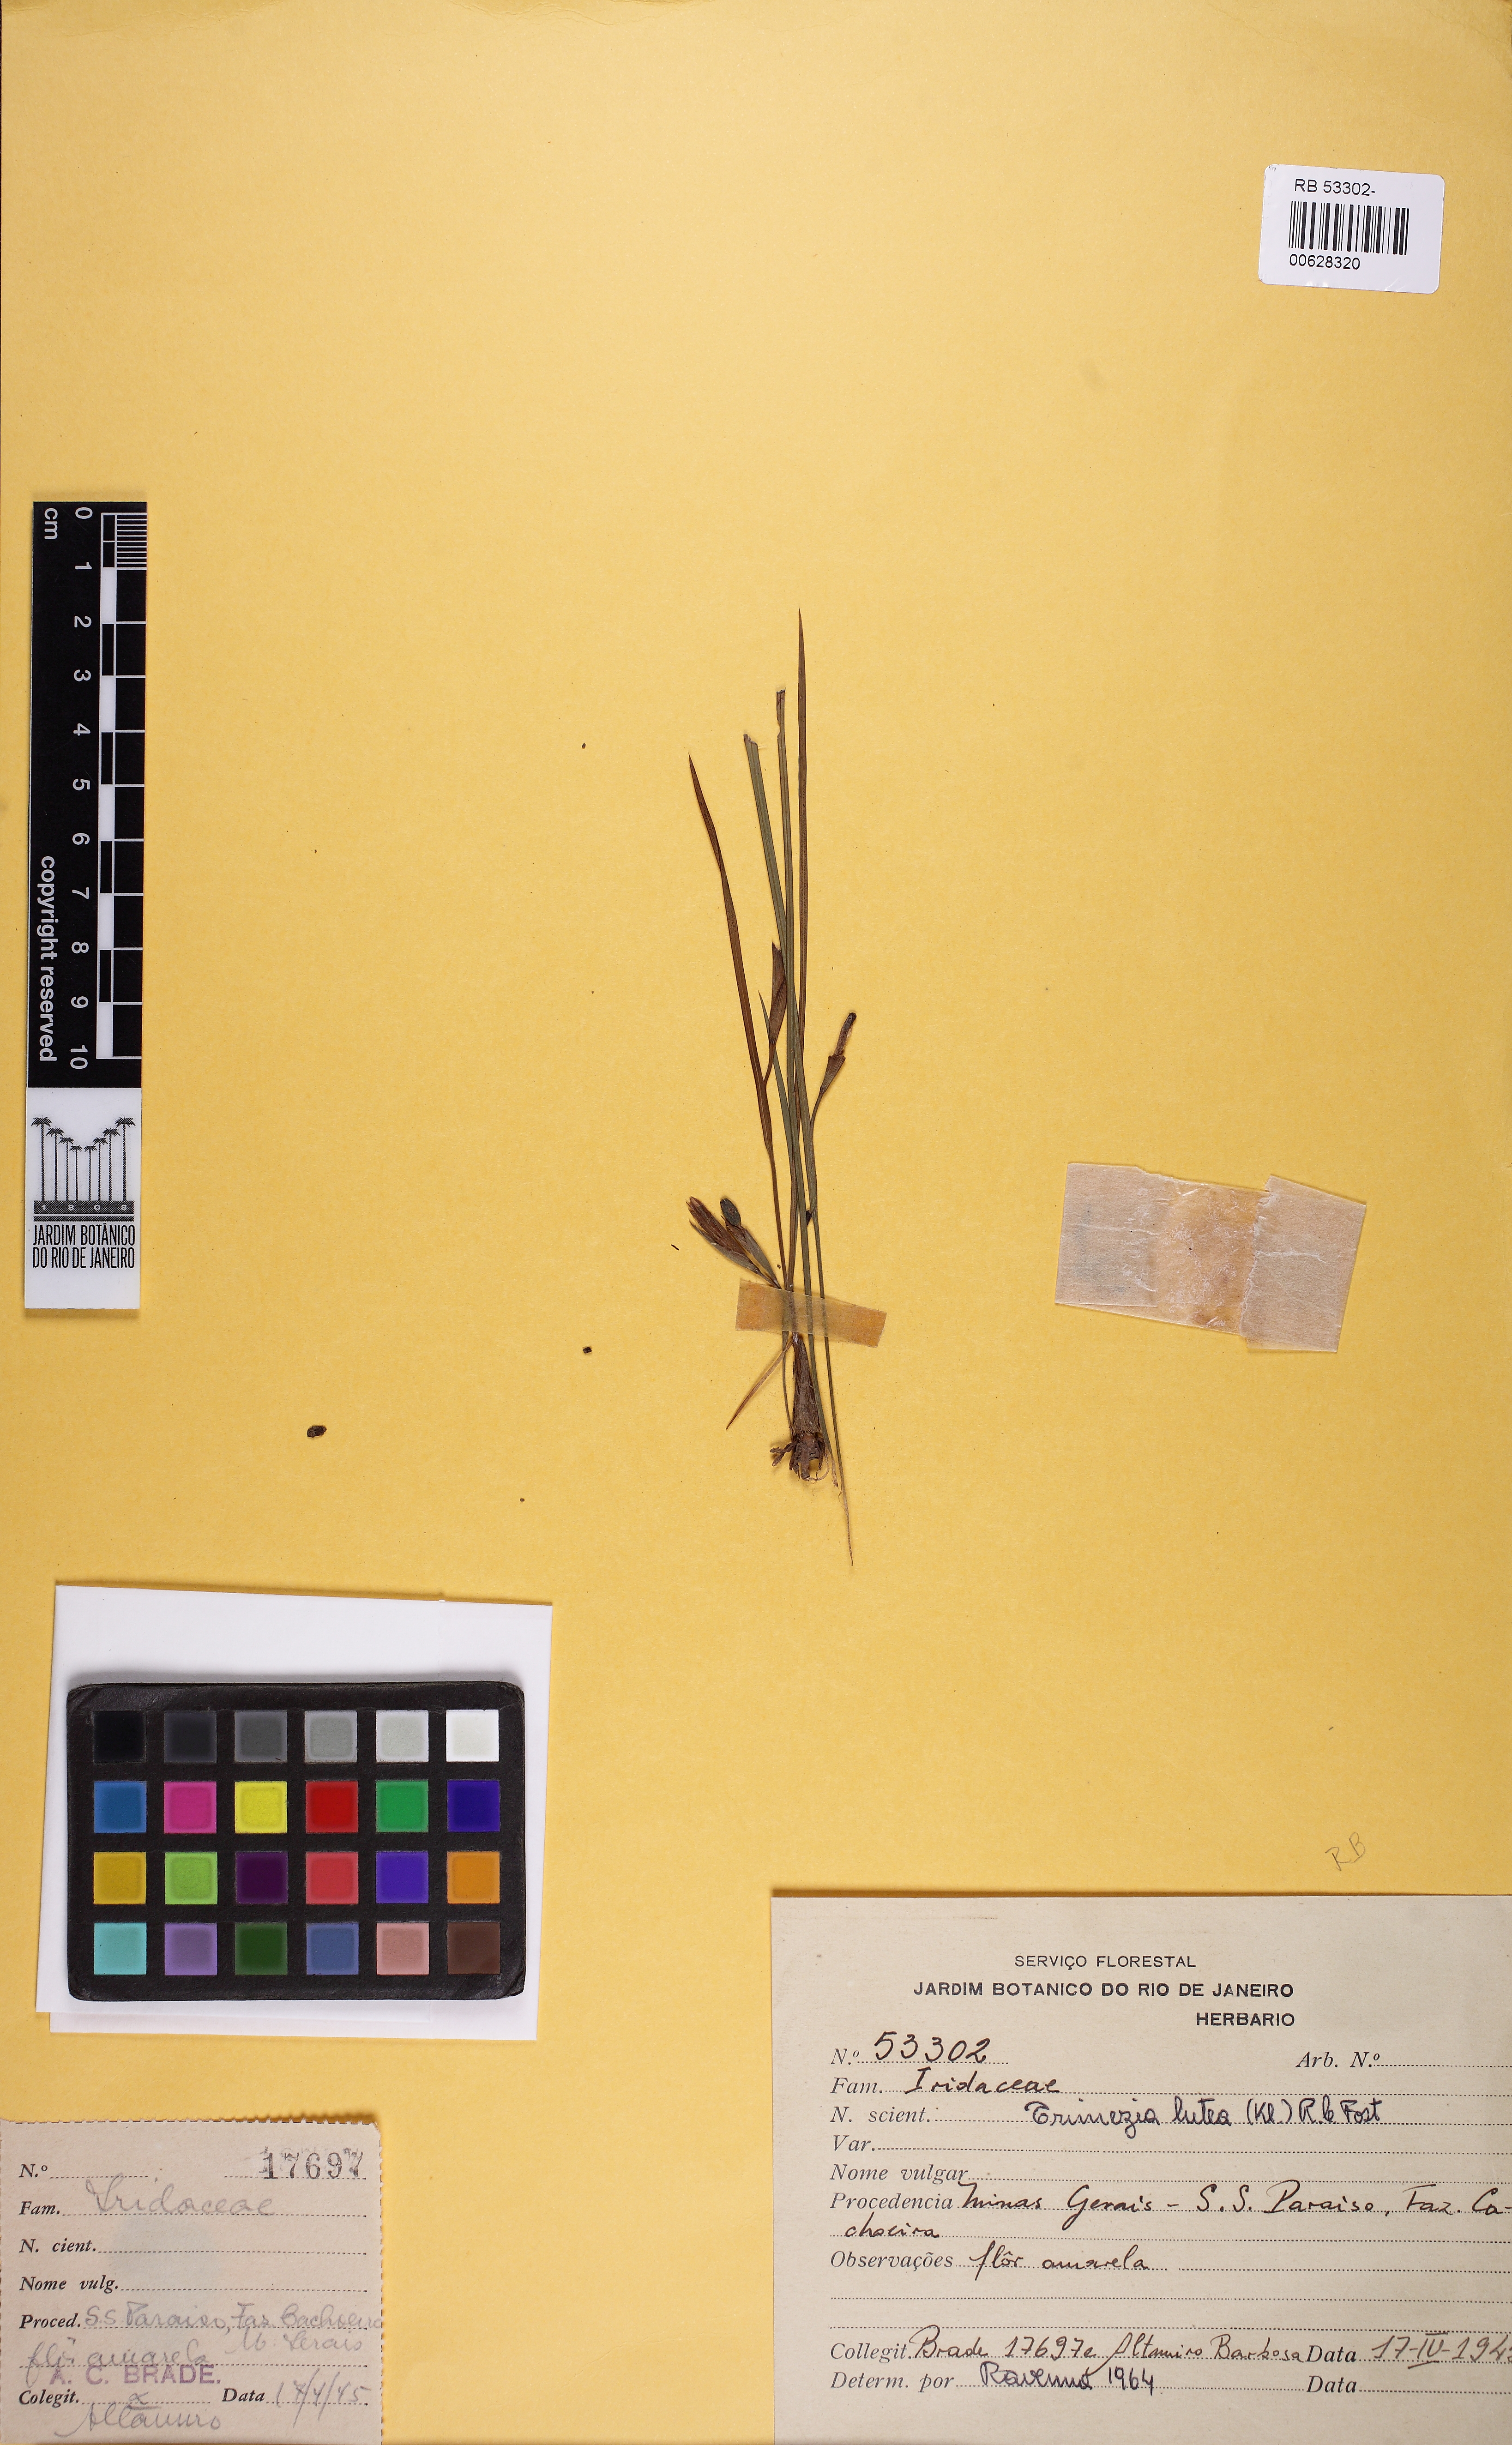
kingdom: Plantae
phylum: Tracheophyta
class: Liliopsida
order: Asparagales
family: Iridaceae
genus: Trimezia
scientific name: Trimezia longifolia
